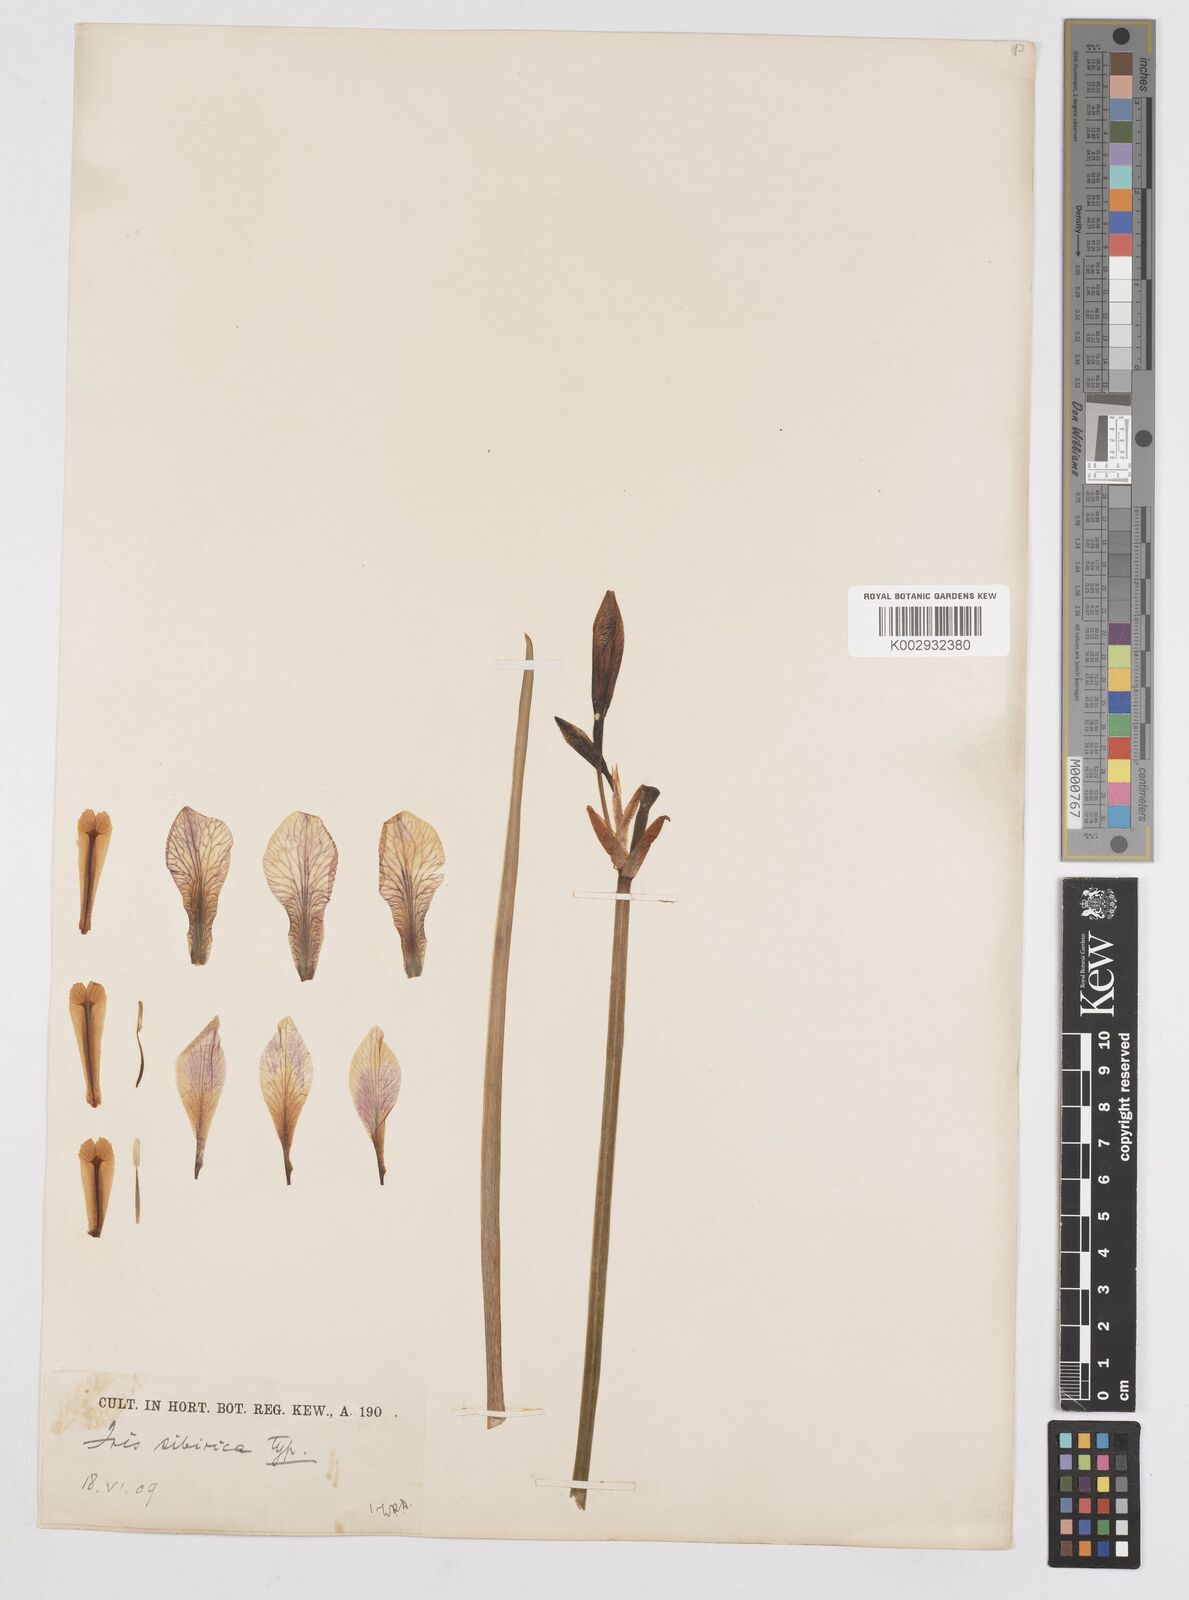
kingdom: Plantae
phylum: Tracheophyta
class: Liliopsida
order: Asparagales
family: Iridaceae
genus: Iris
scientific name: Iris sibirica
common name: Siberian iris
